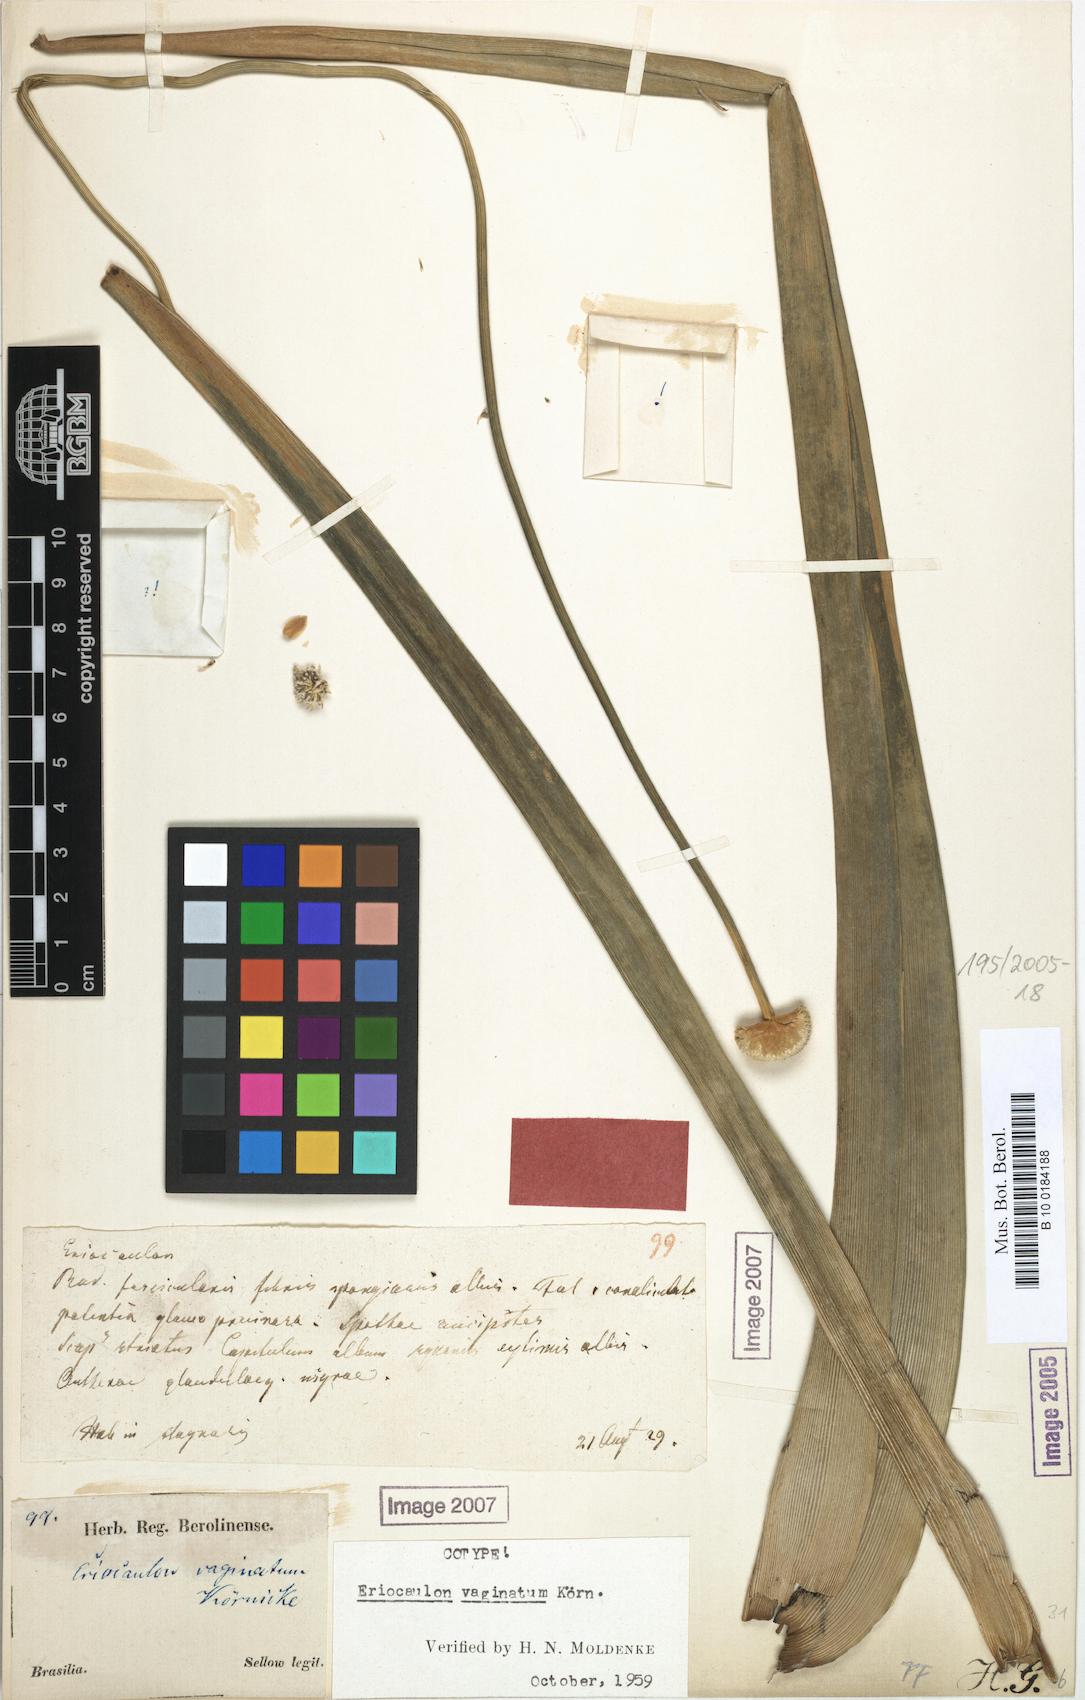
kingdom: Plantae
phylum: Tracheophyta
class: Liliopsida
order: Poales
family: Eriocaulaceae
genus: Eriocaulon
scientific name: Eriocaulon ligulatum
